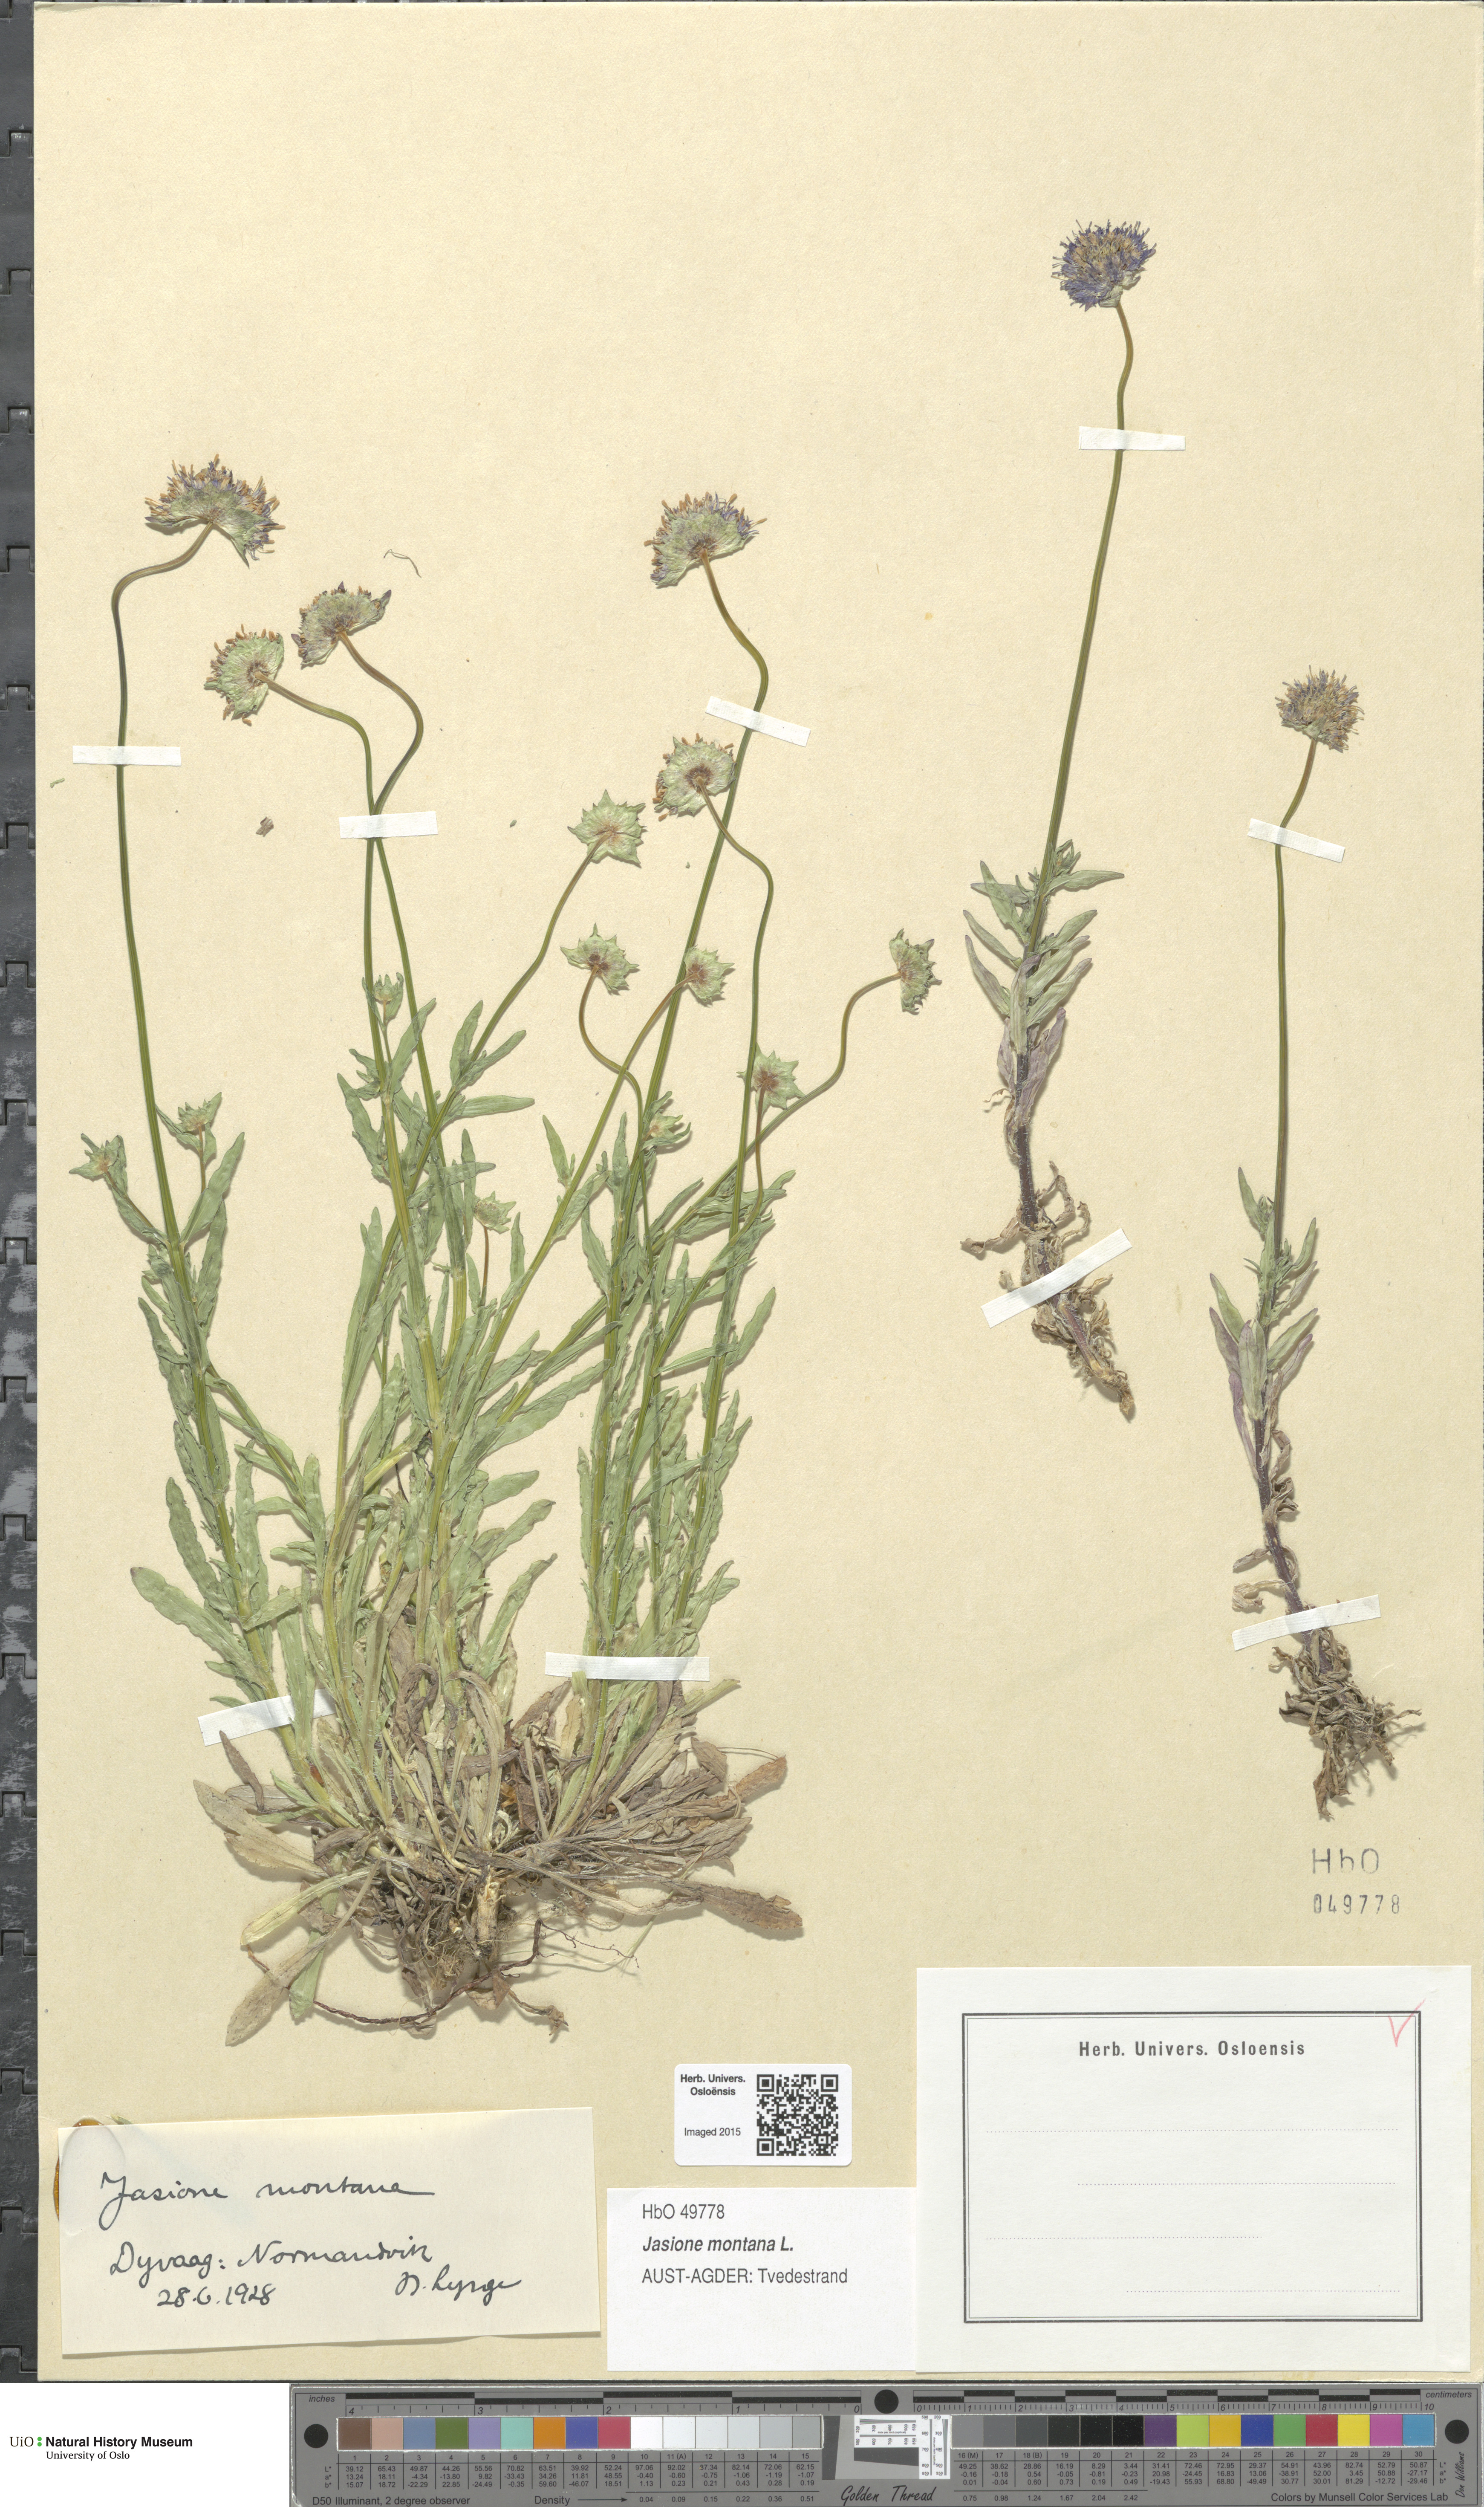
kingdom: Plantae
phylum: Tracheophyta
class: Magnoliopsida
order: Asterales
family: Campanulaceae
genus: Jasione
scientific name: Jasione montana
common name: Sheep's-bit
